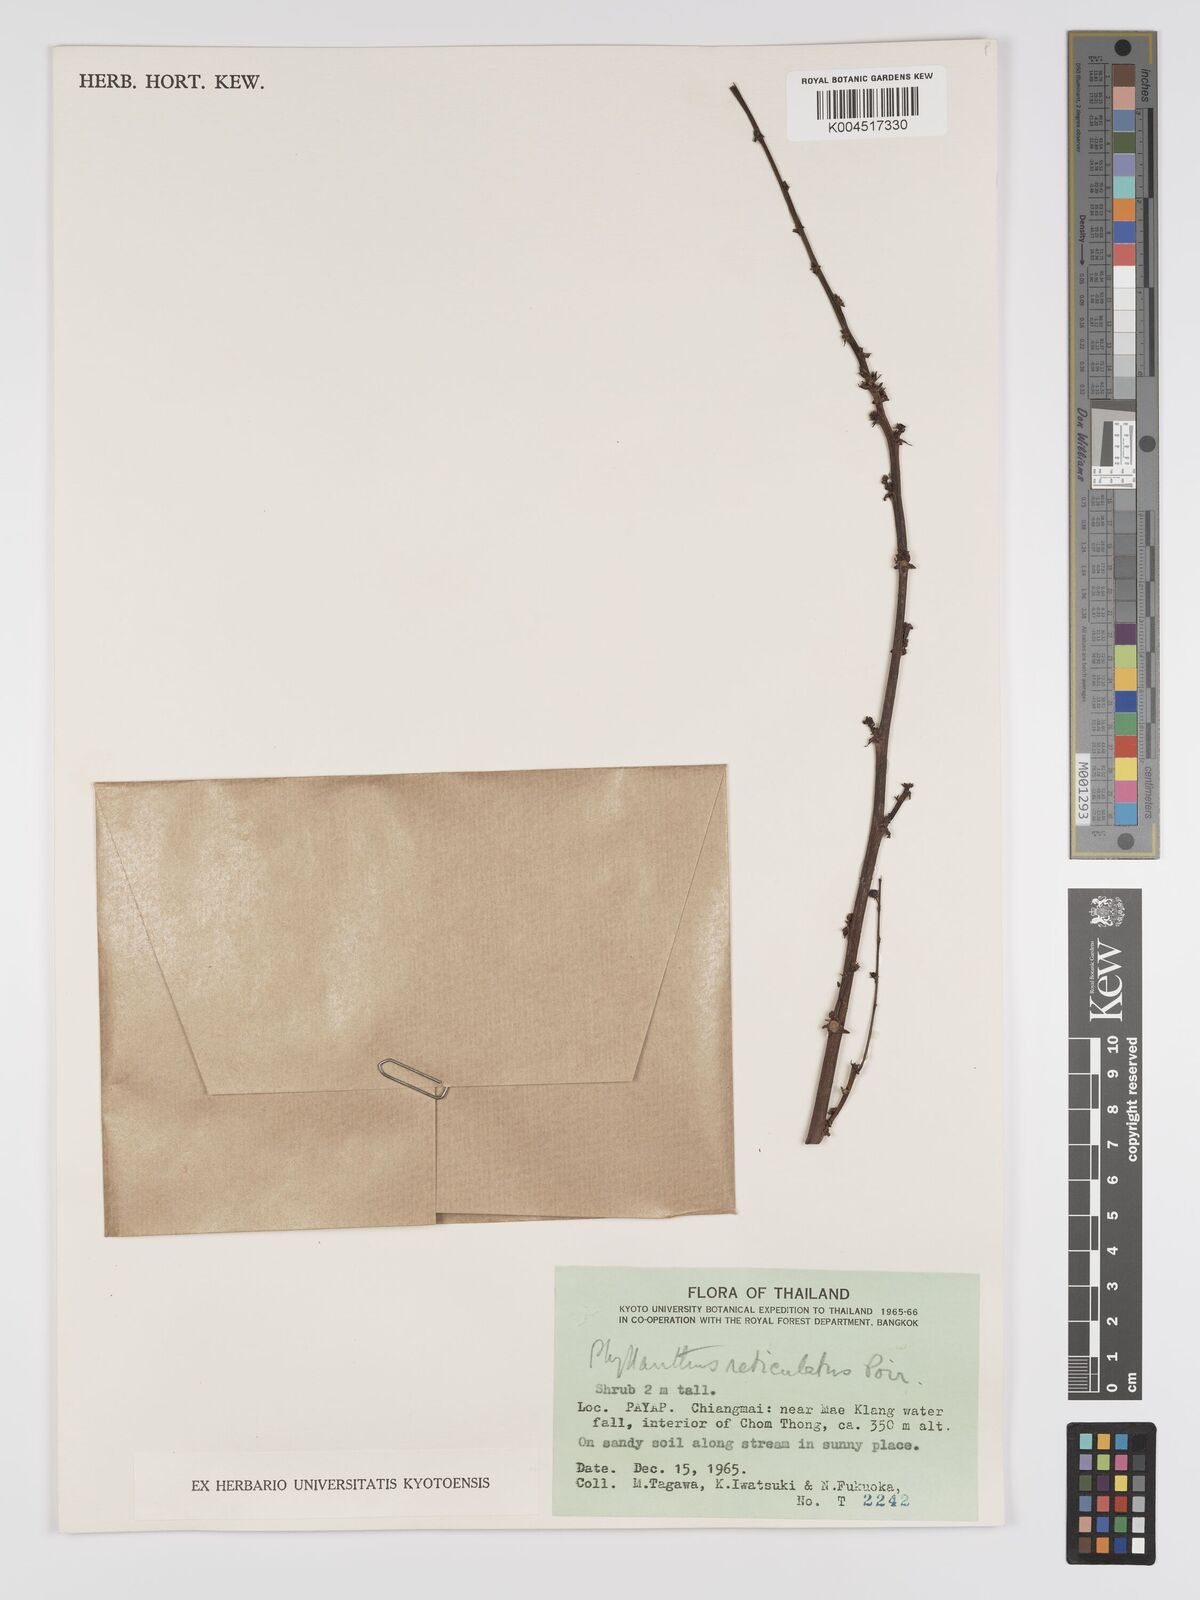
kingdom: Plantae
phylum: Tracheophyta
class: Magnoliopsida
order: Malpighiales
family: Phyllanthaceae
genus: Phyllanthus
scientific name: Phyllanthus reticulatus
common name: Potato bush
